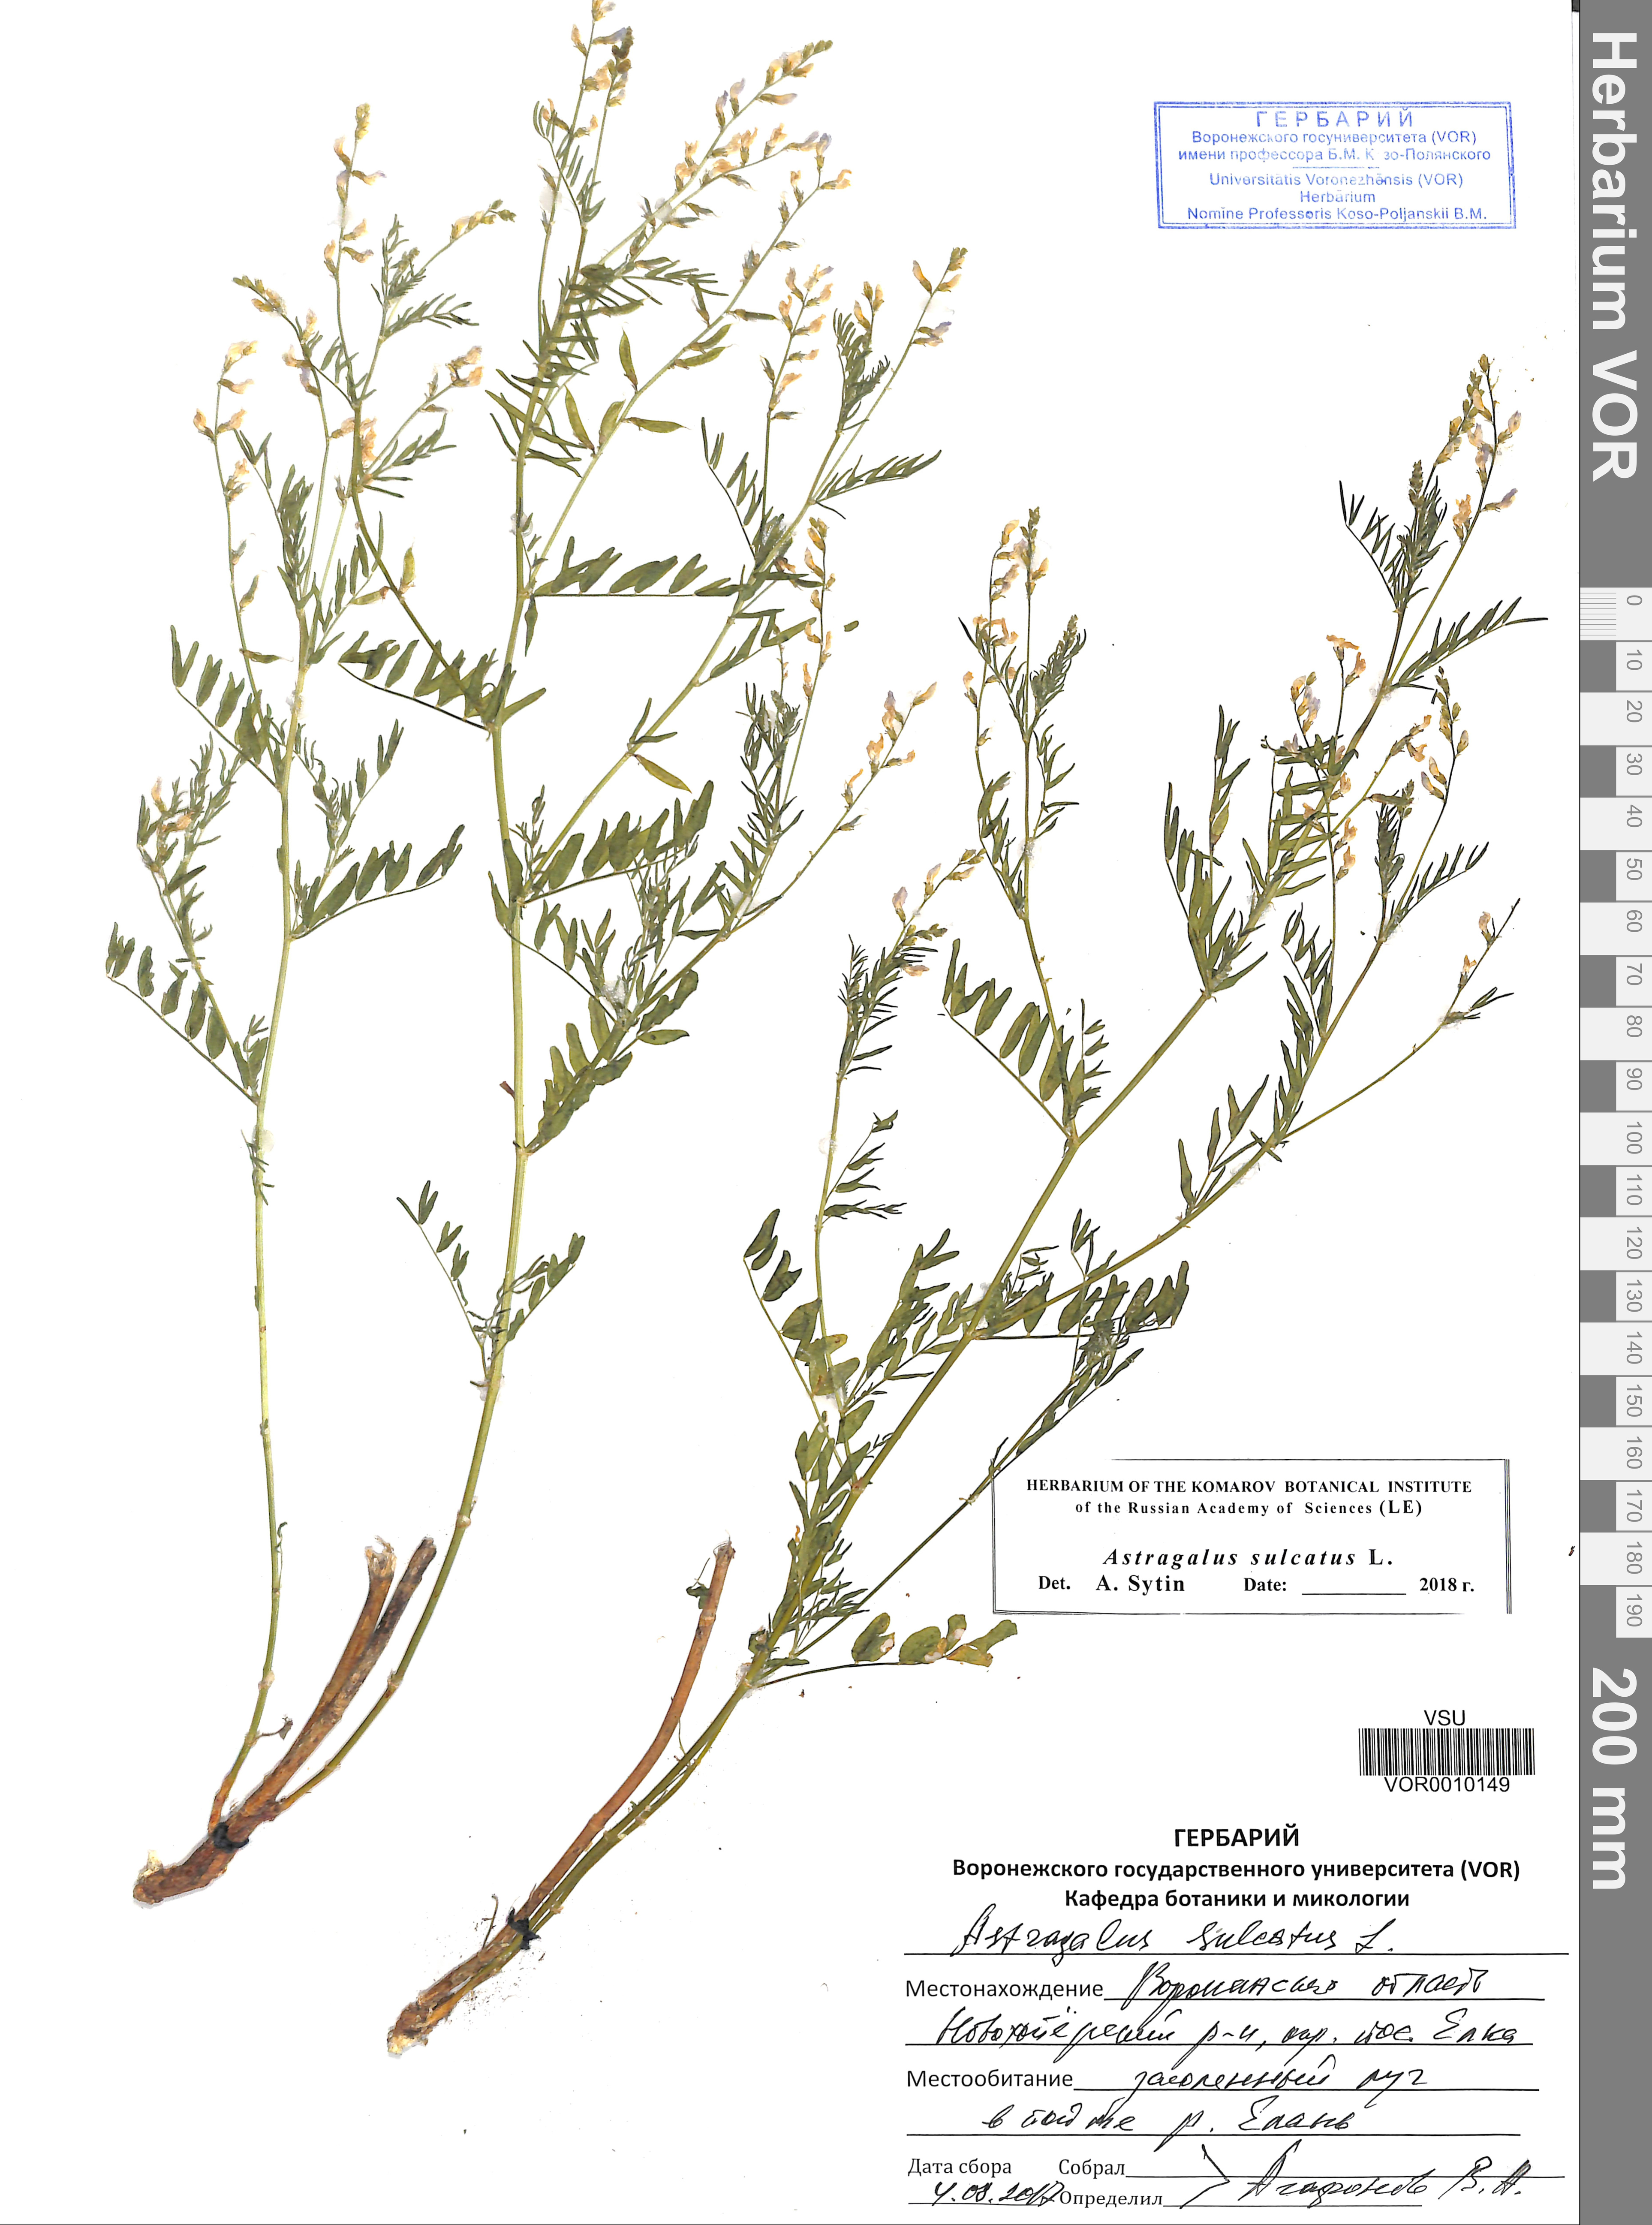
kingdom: Plantae
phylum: Tracheophyta
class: Magnoliopsida
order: Fabales
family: Fabaceae
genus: Astragalus
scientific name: Astragalus sulcatus
